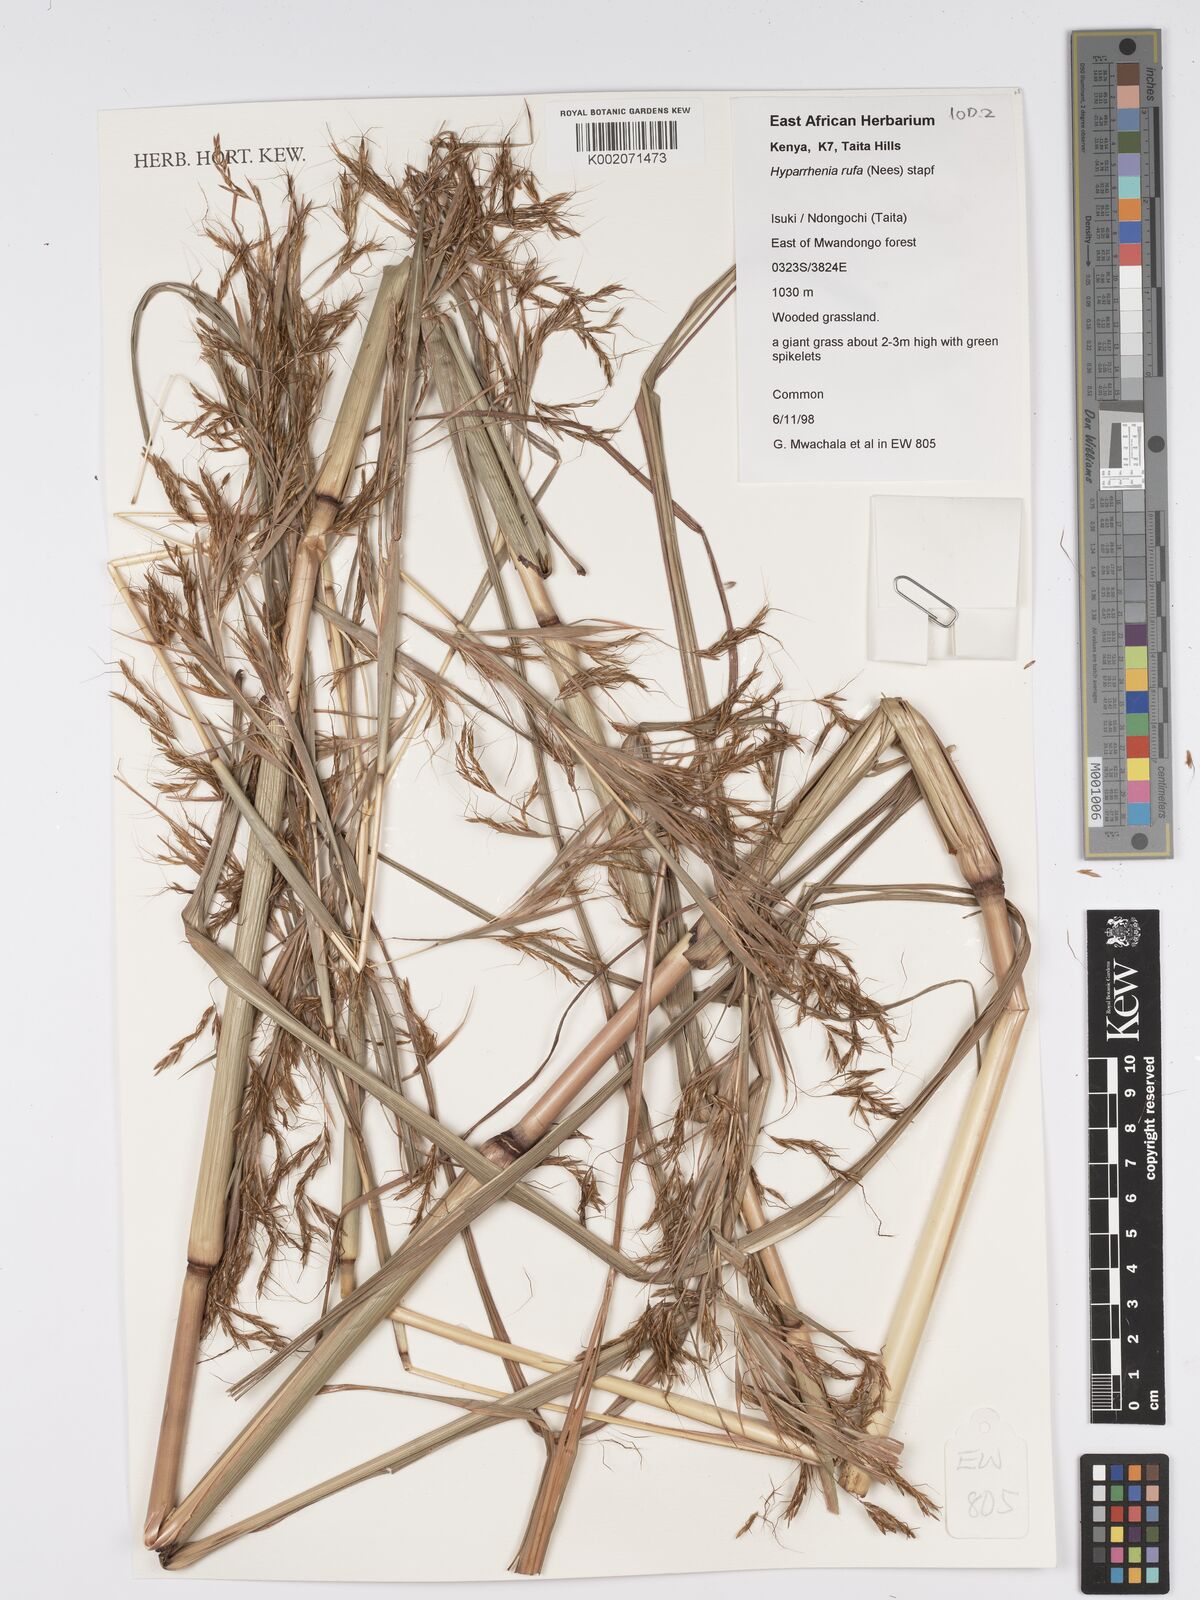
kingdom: Plantae
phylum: Tracheophyta
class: Liliopsida
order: Poales
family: Poaceae
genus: Hyparrhenia
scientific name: Hyparrhenia rufa
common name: Jaraguagrass
